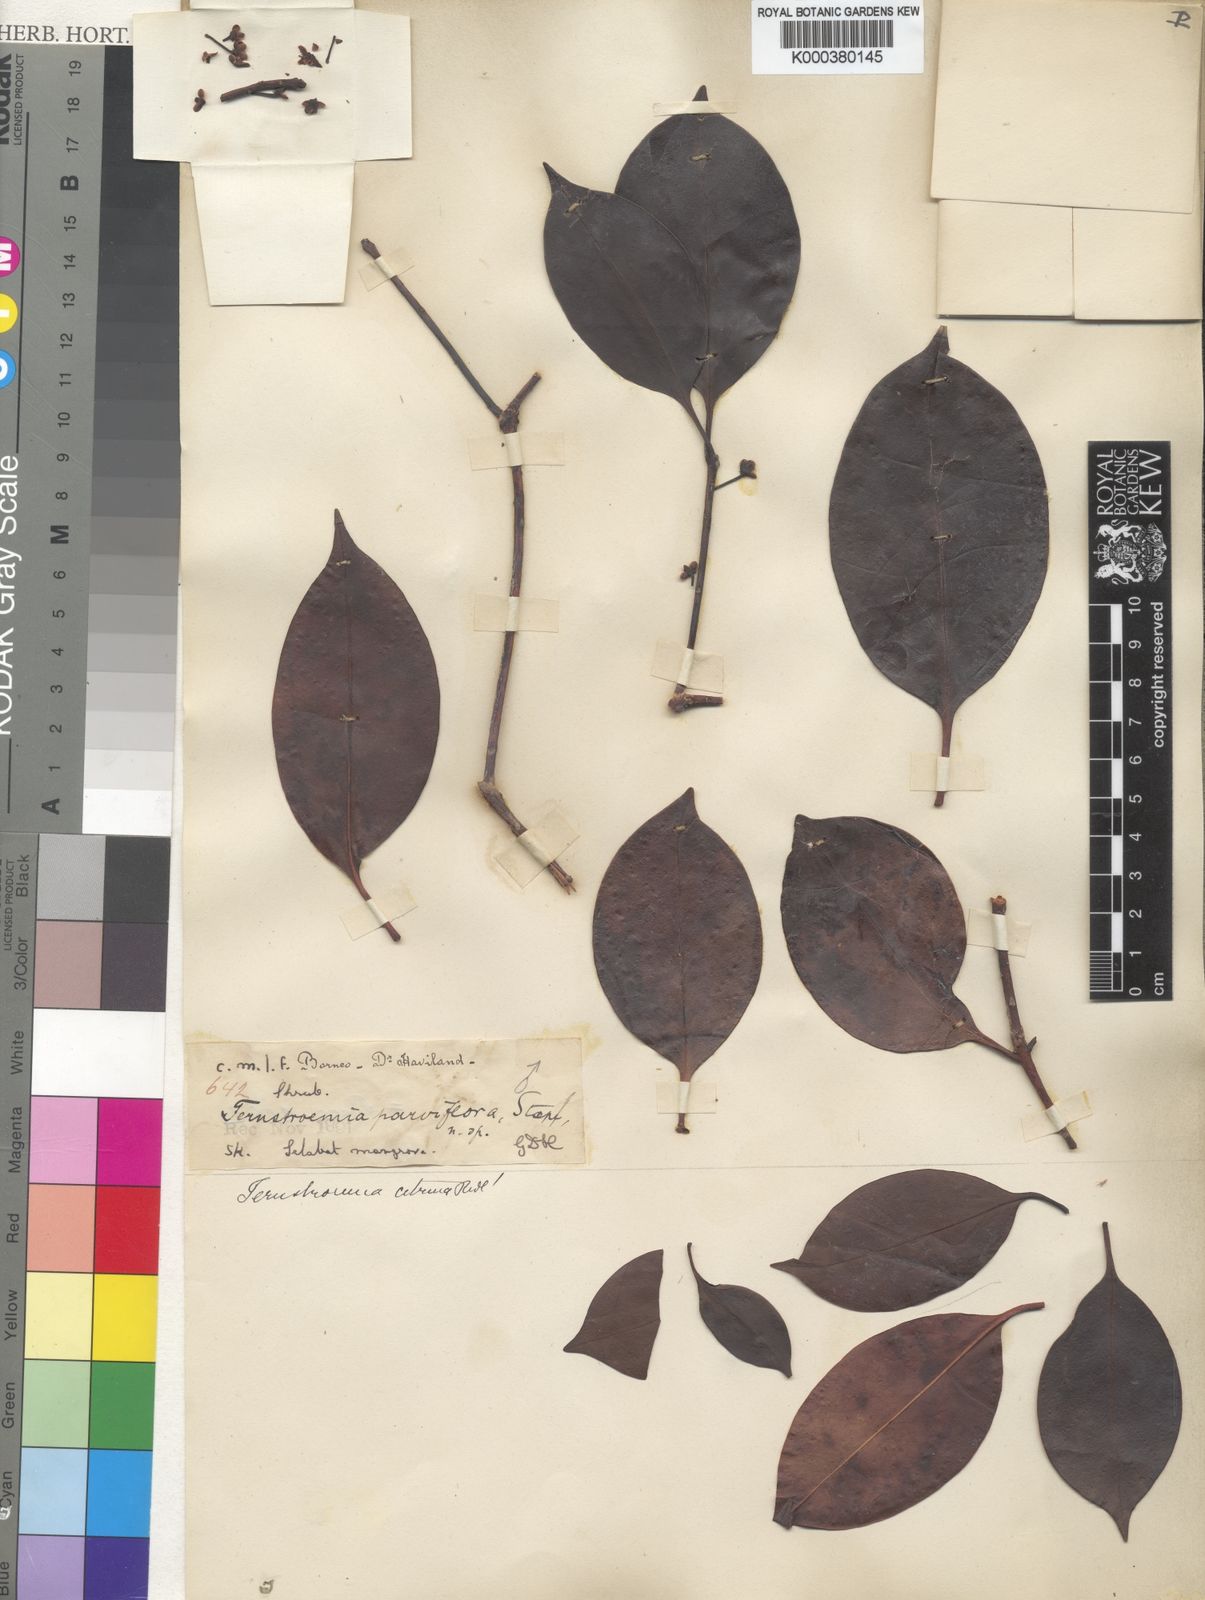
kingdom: Plantae
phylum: Tracheophyta
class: Magnoliopsida
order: Ericales
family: Pentaphylacaceae
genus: Ternstroemia
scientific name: Ternstroemia citrina
